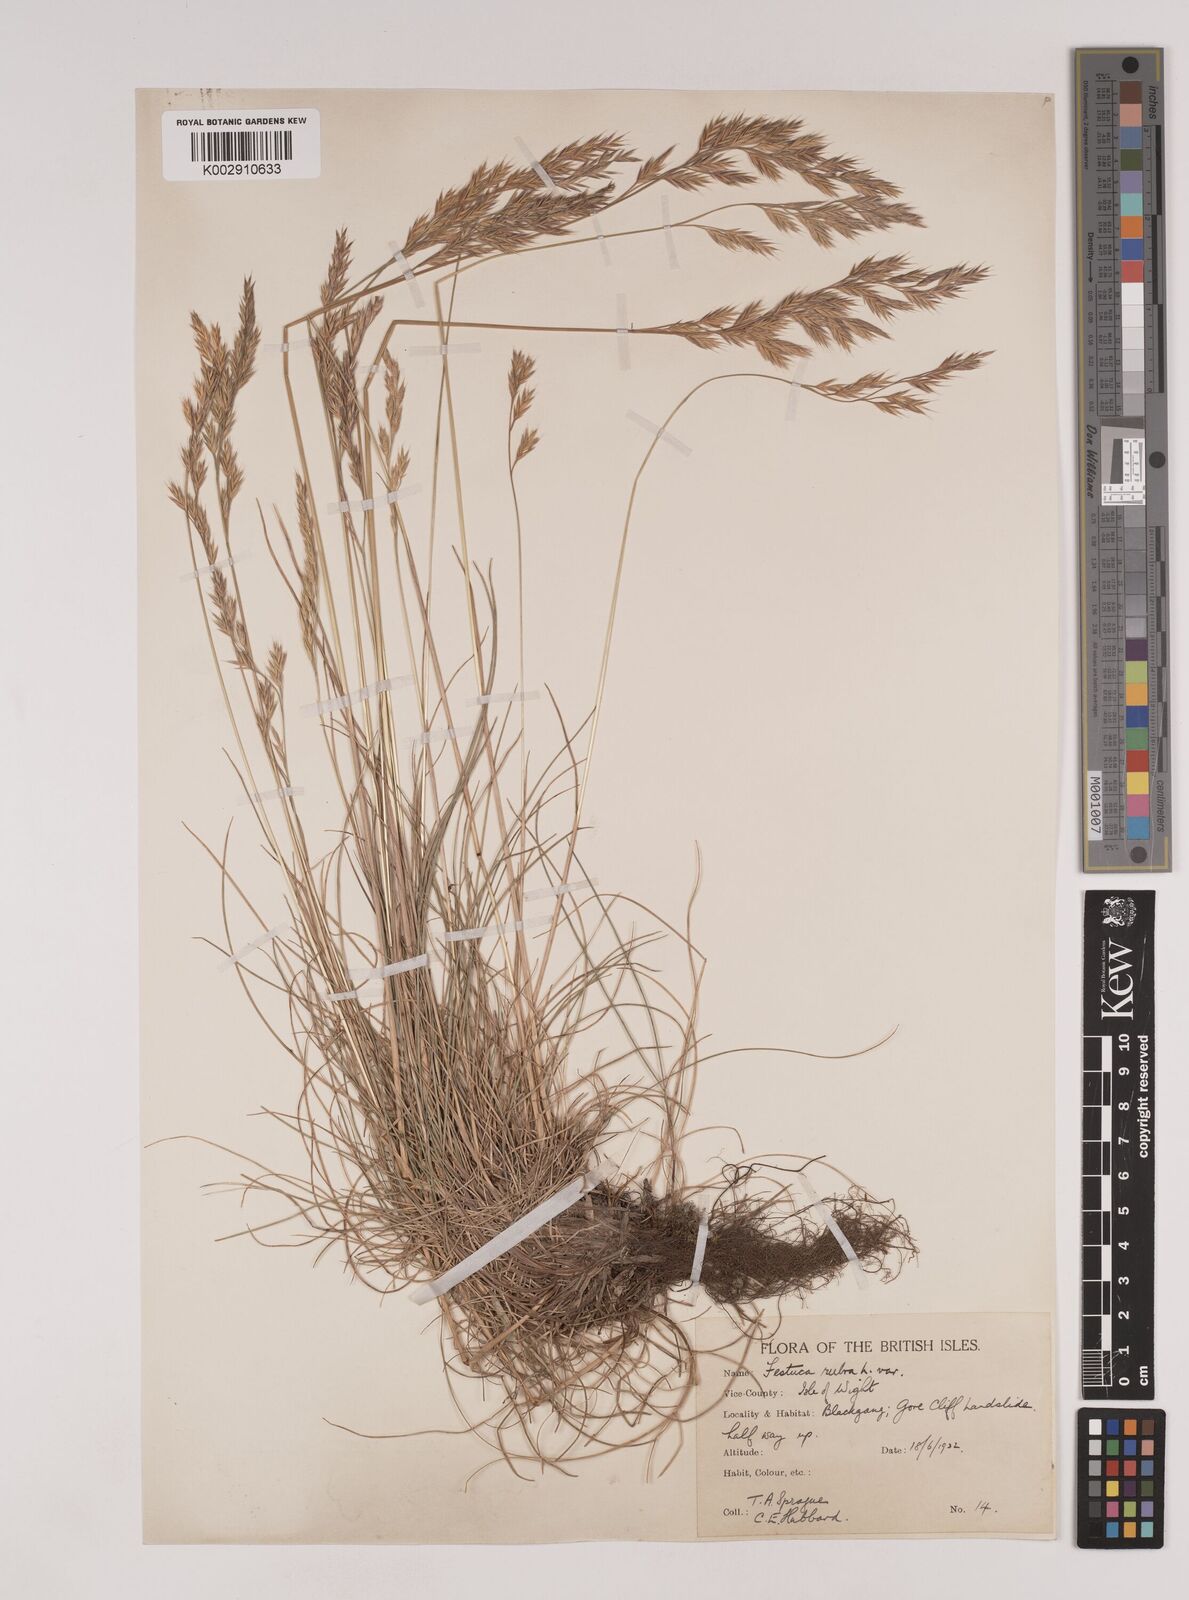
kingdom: Plantae
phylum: Tracheophyta
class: Liliopsida
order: Poales
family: Poaceae
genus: Festuca
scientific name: Festuca rubra
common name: Red fescue
